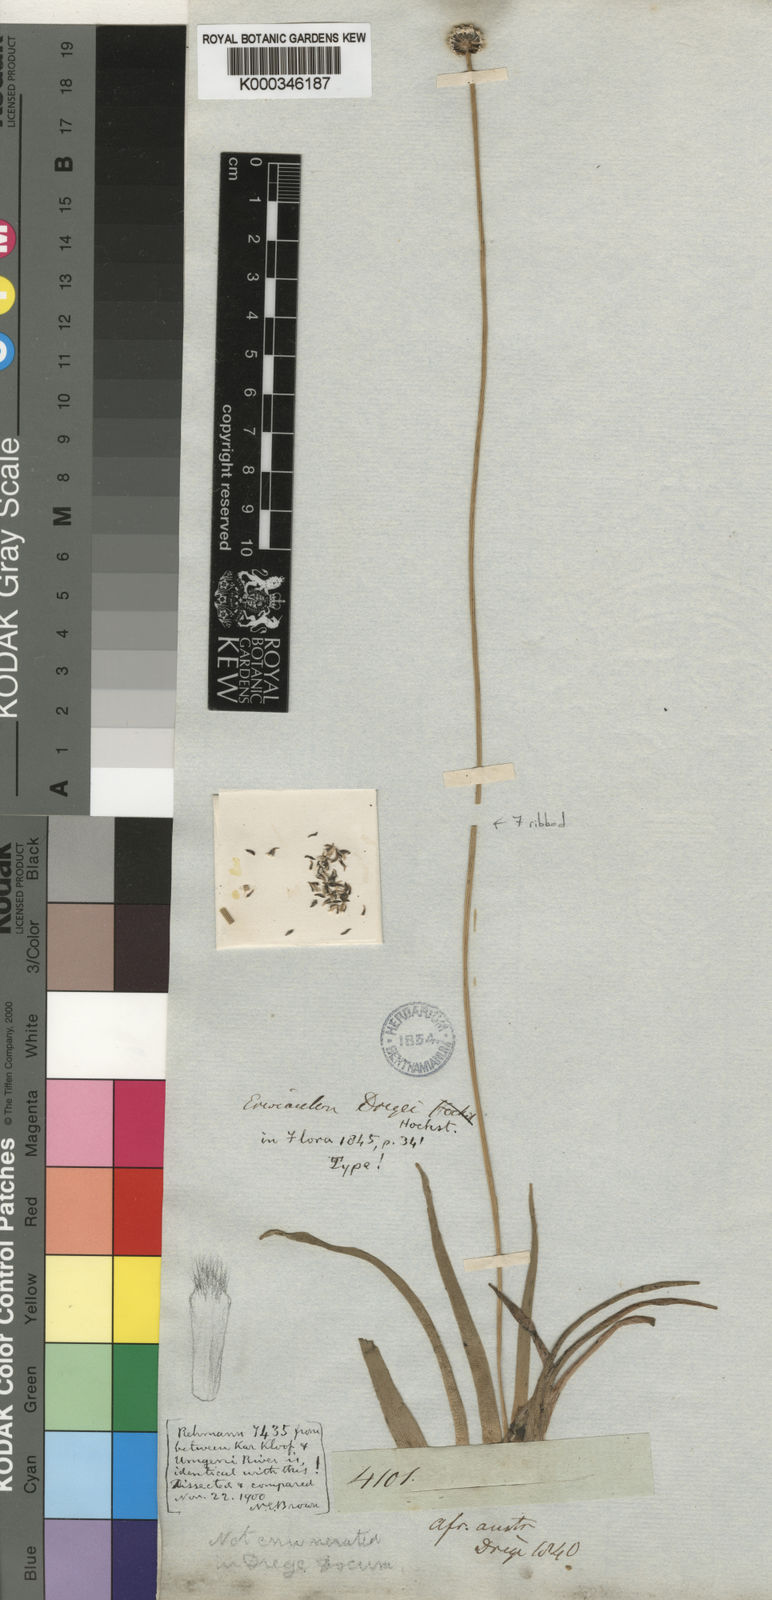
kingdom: Plantae
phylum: Tracheophyta
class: Liliopsida
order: Poales
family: Eriocaulaceae
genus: Eriocaulon
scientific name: Eriocaulon dregei
